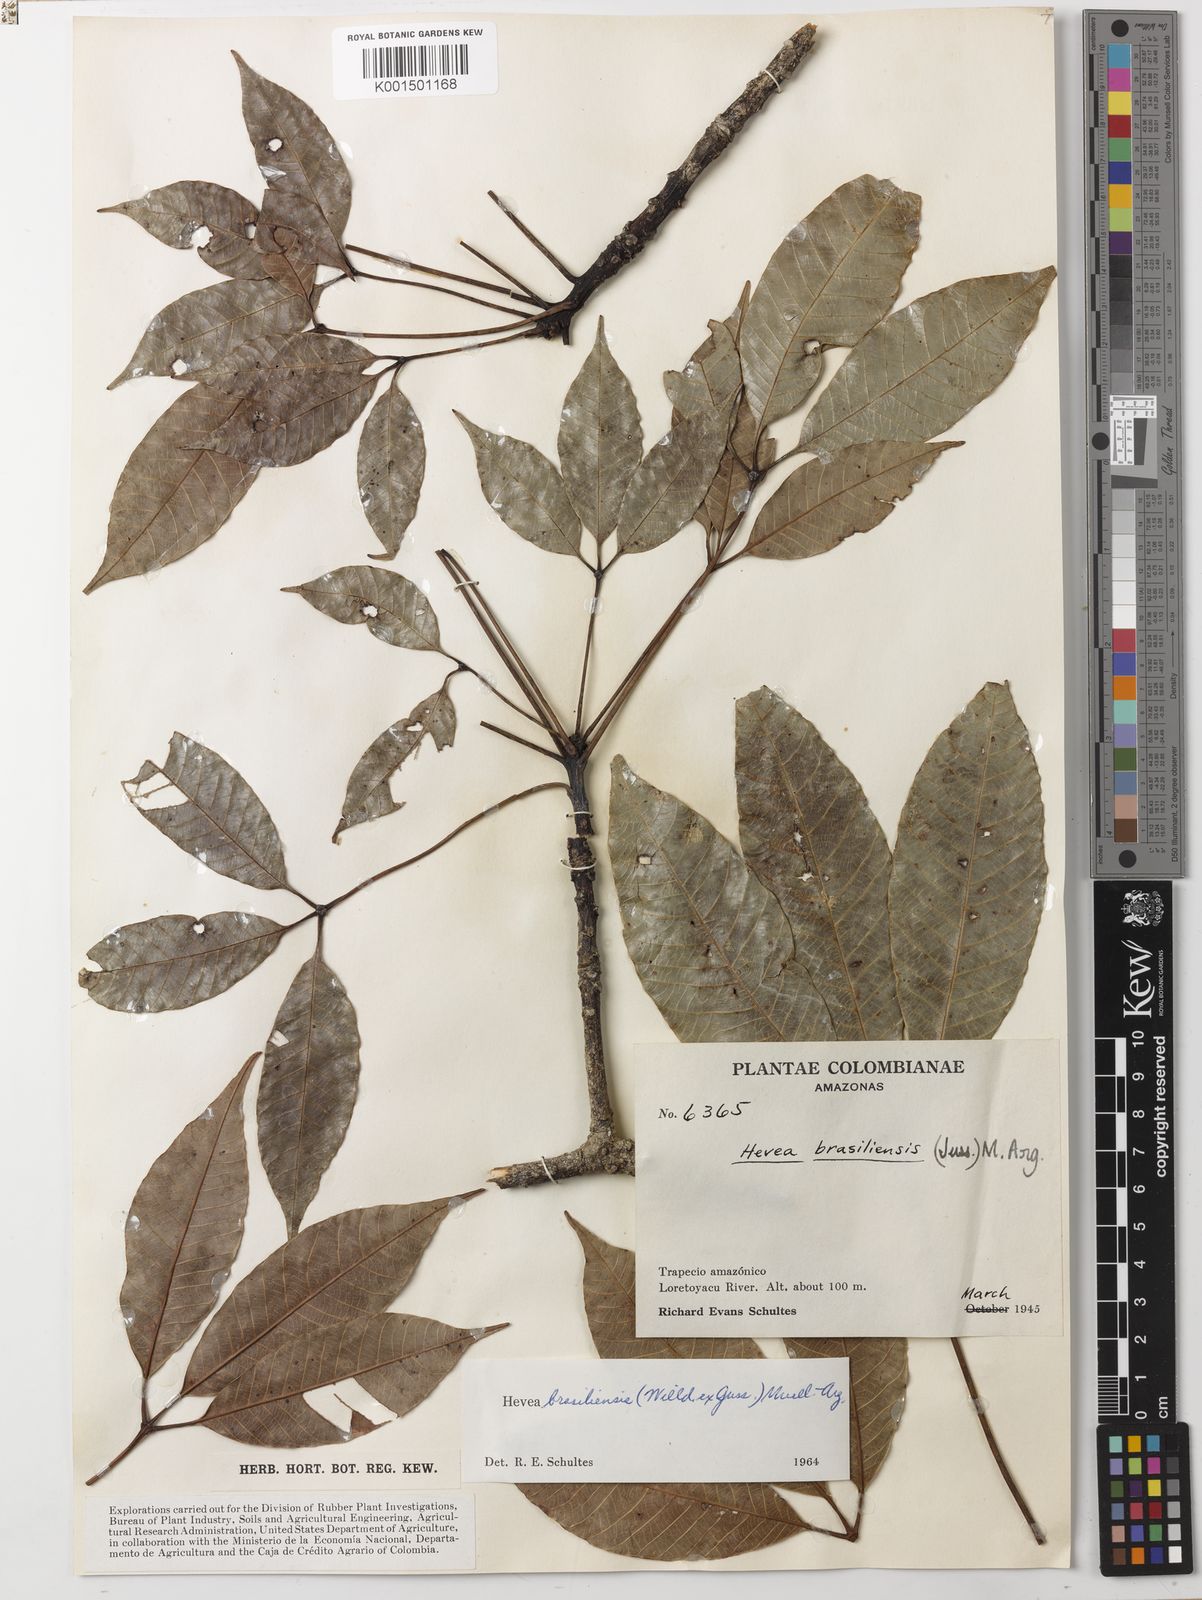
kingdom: Plantae
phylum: Tracheophyta
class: Magnoliopsida
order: Malpighiales
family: Euphorbiaceae
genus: Hevea
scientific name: Hevea brasiliensis
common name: Natural rubber
